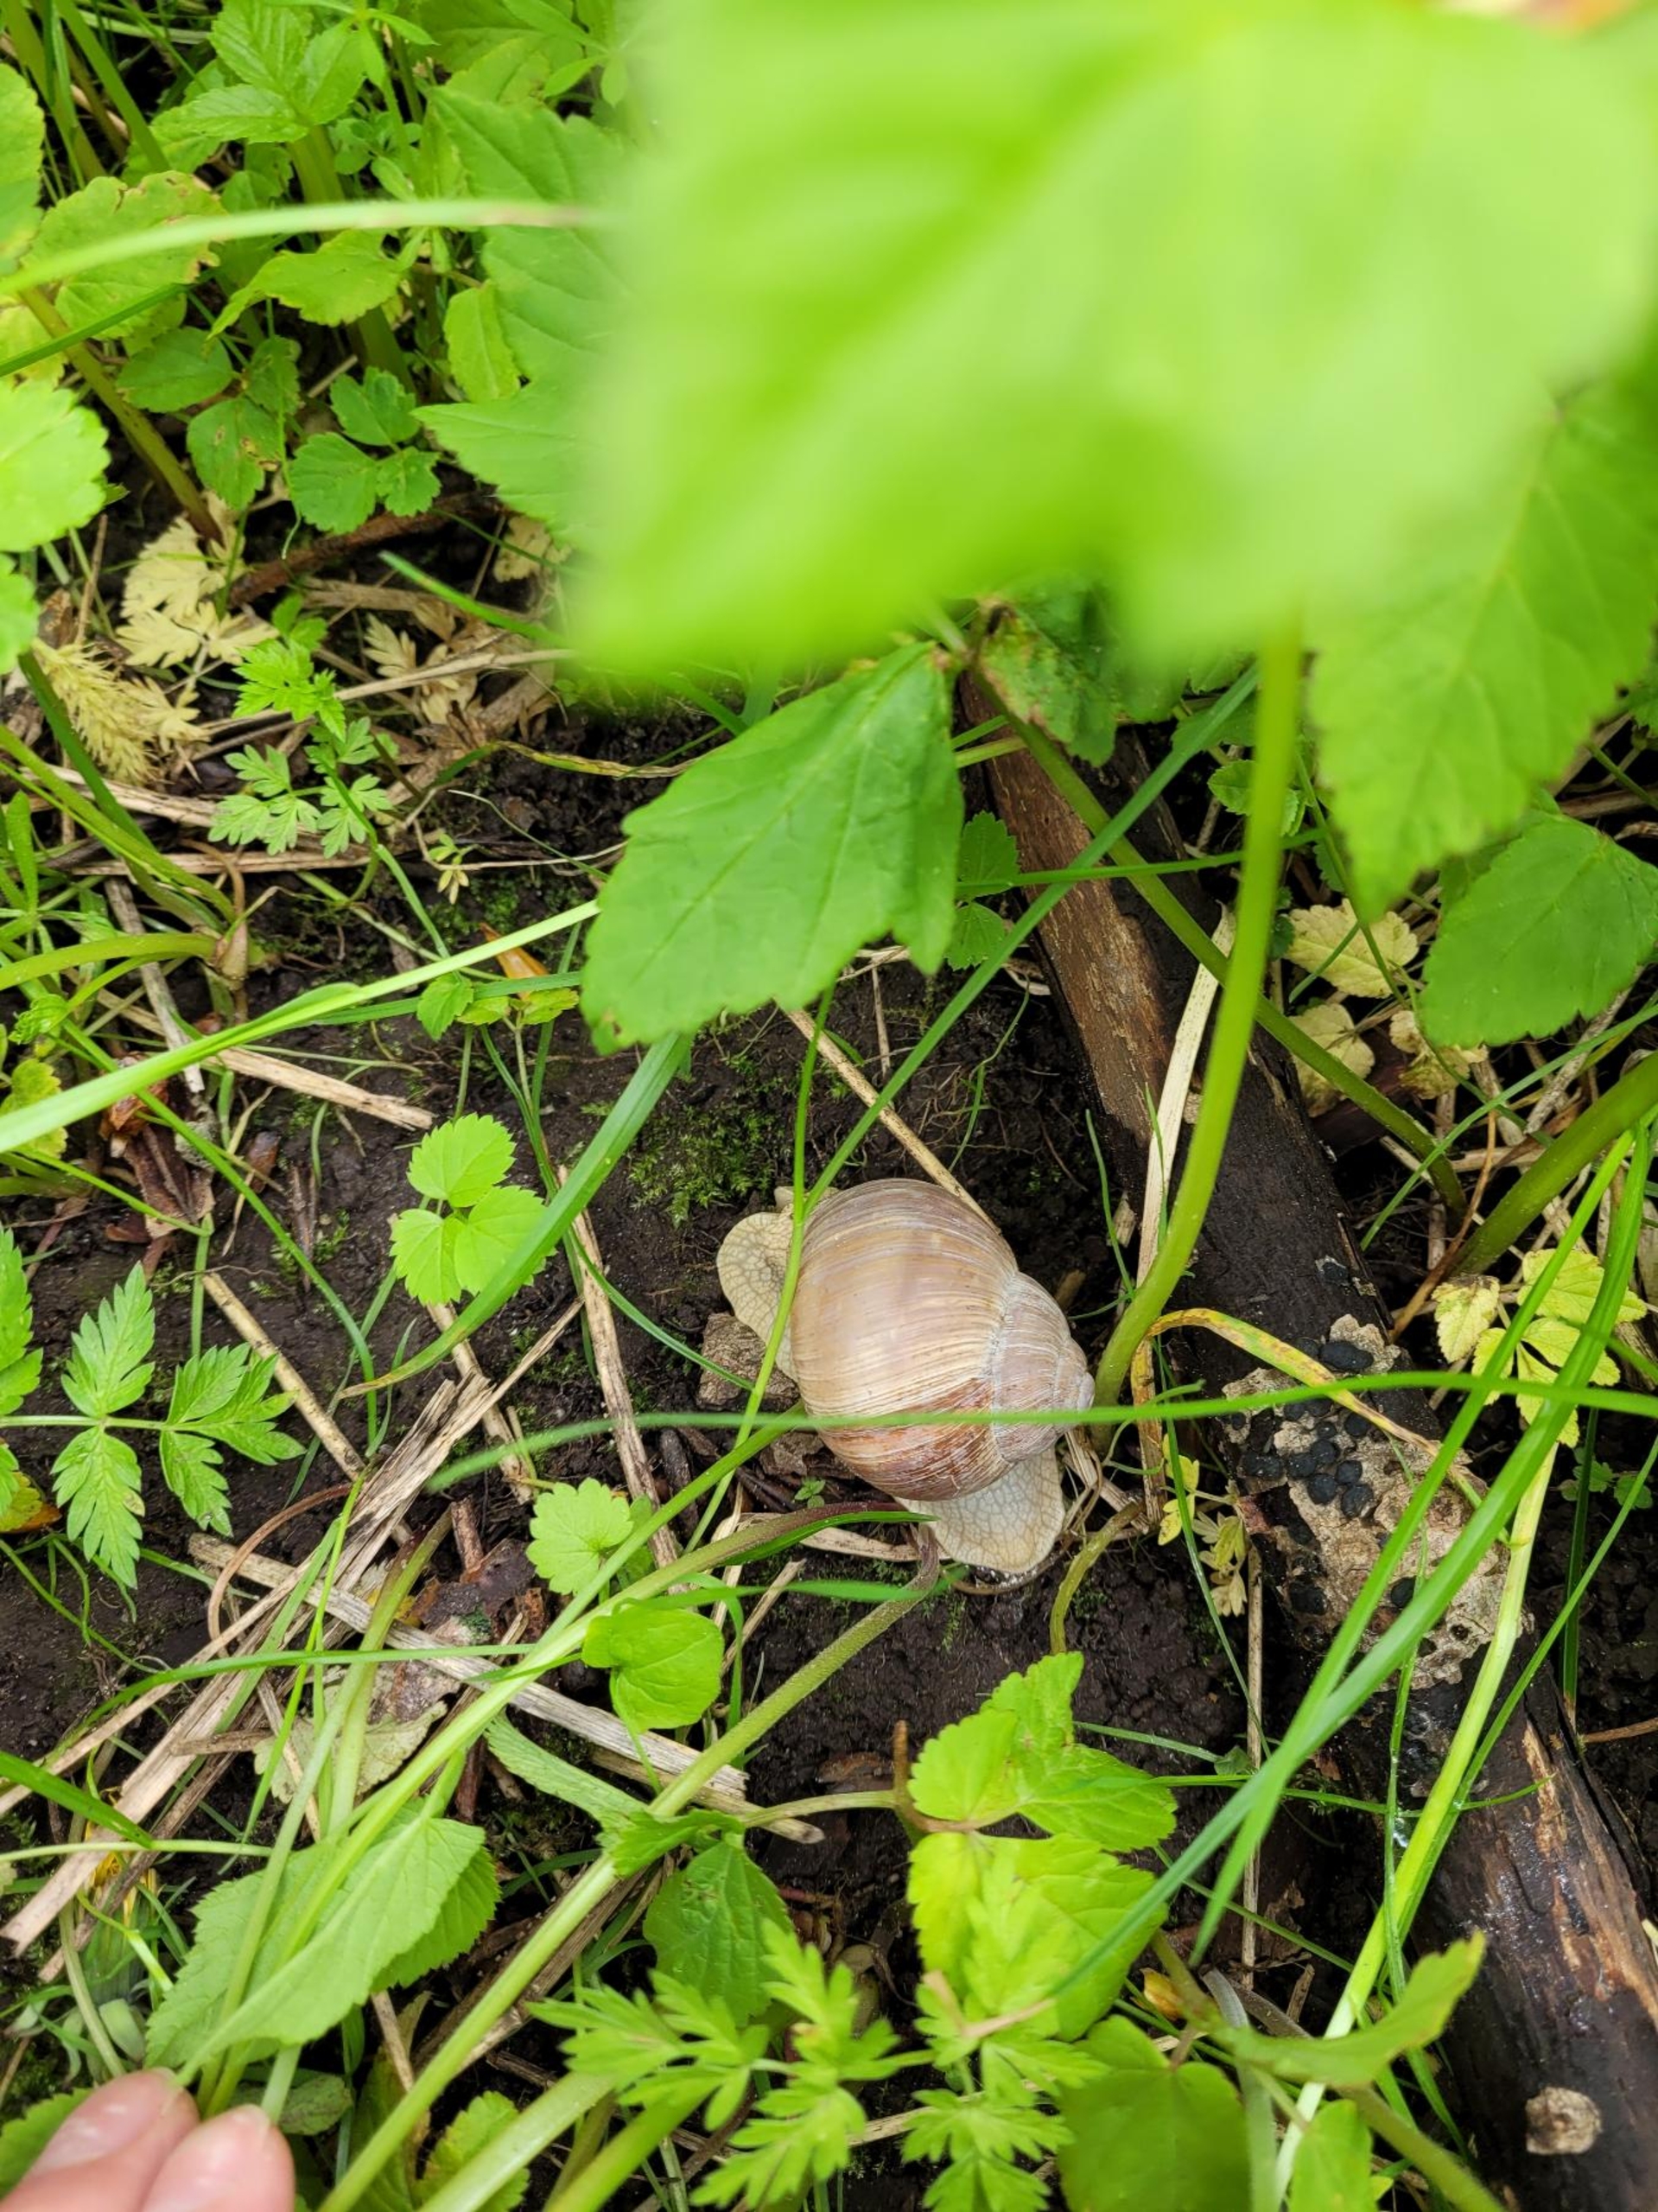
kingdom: Animalia
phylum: Mollusca
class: Gastropoda
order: Stylommatophora
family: Helicidae
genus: Helix
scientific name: Helix pomatia
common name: Vinbjergsnegl
